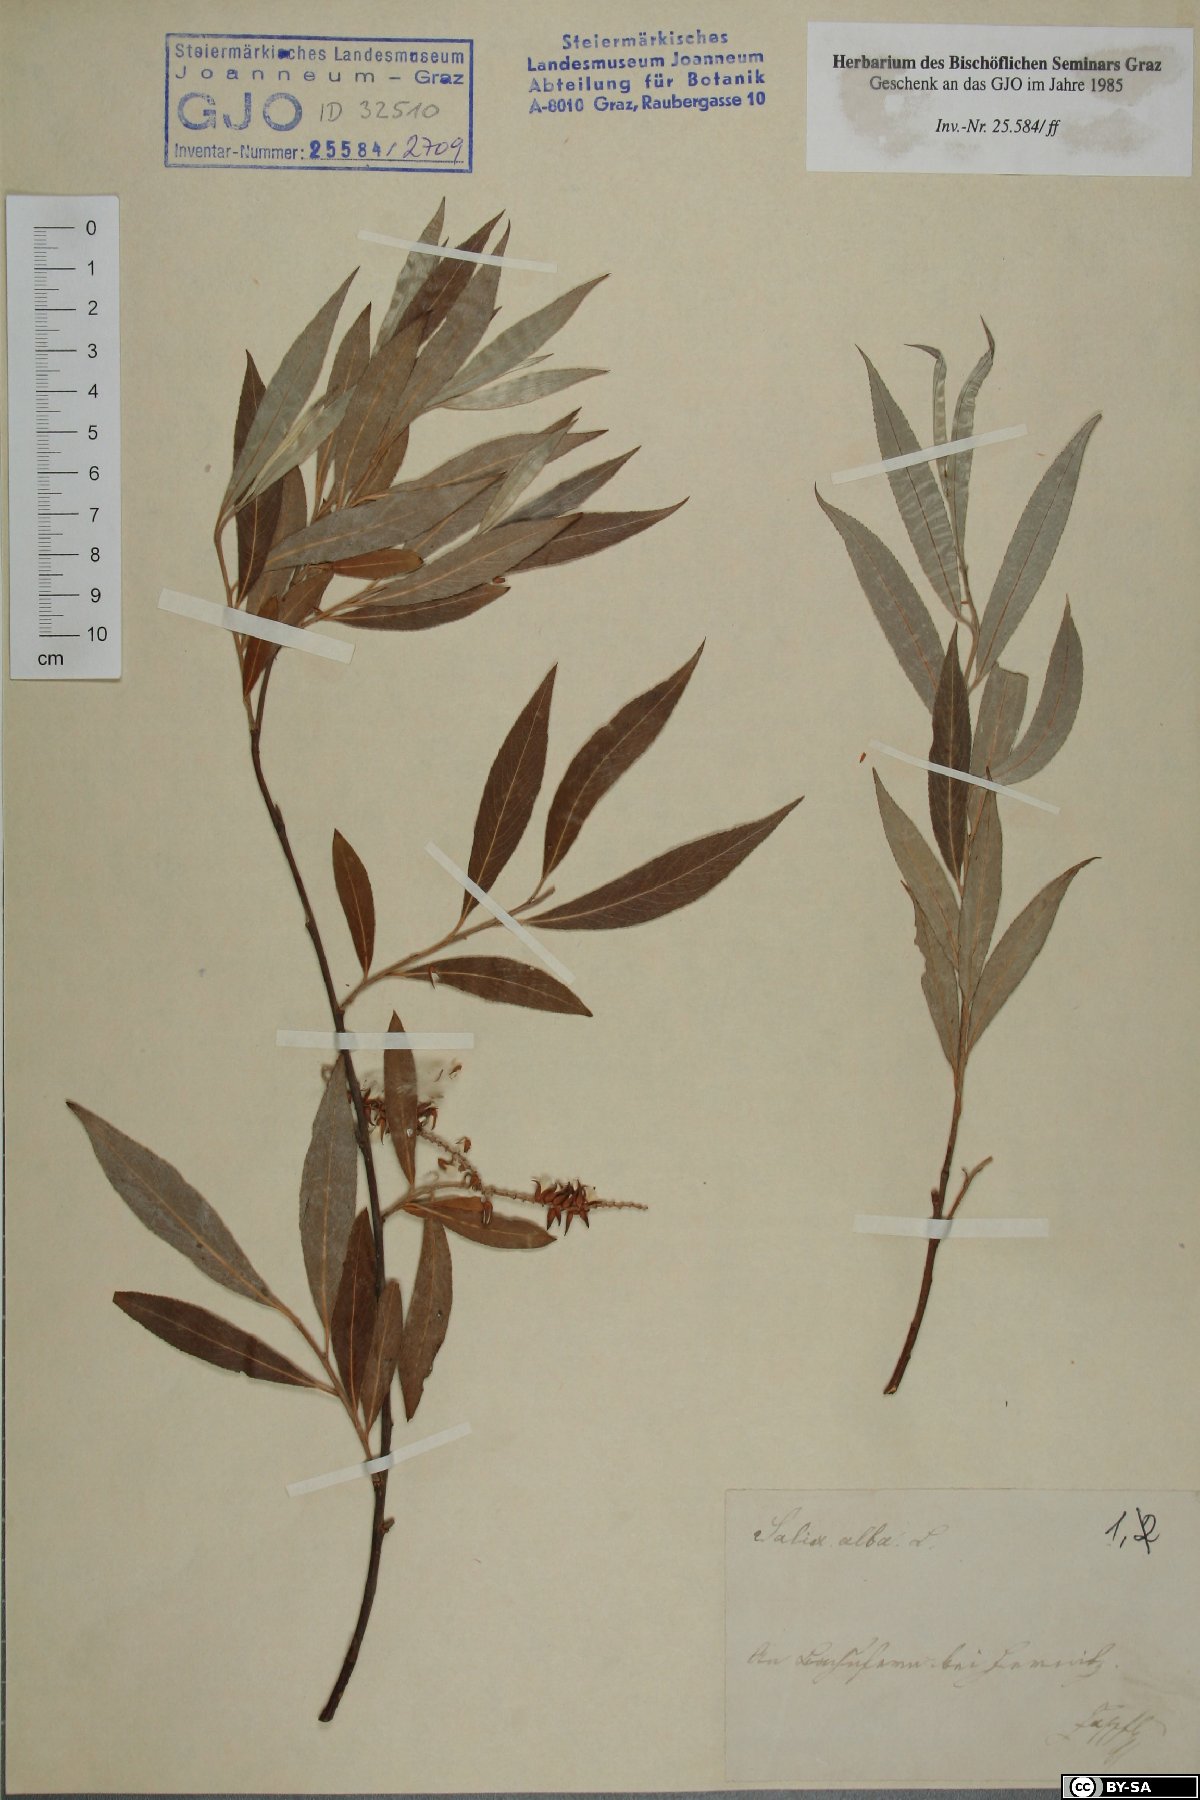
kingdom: Plantae
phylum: Tracheophyta
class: Magnoliopsida
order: Malpighiales
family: Salicaceae
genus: Salix
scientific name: Salix alba
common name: White willow
